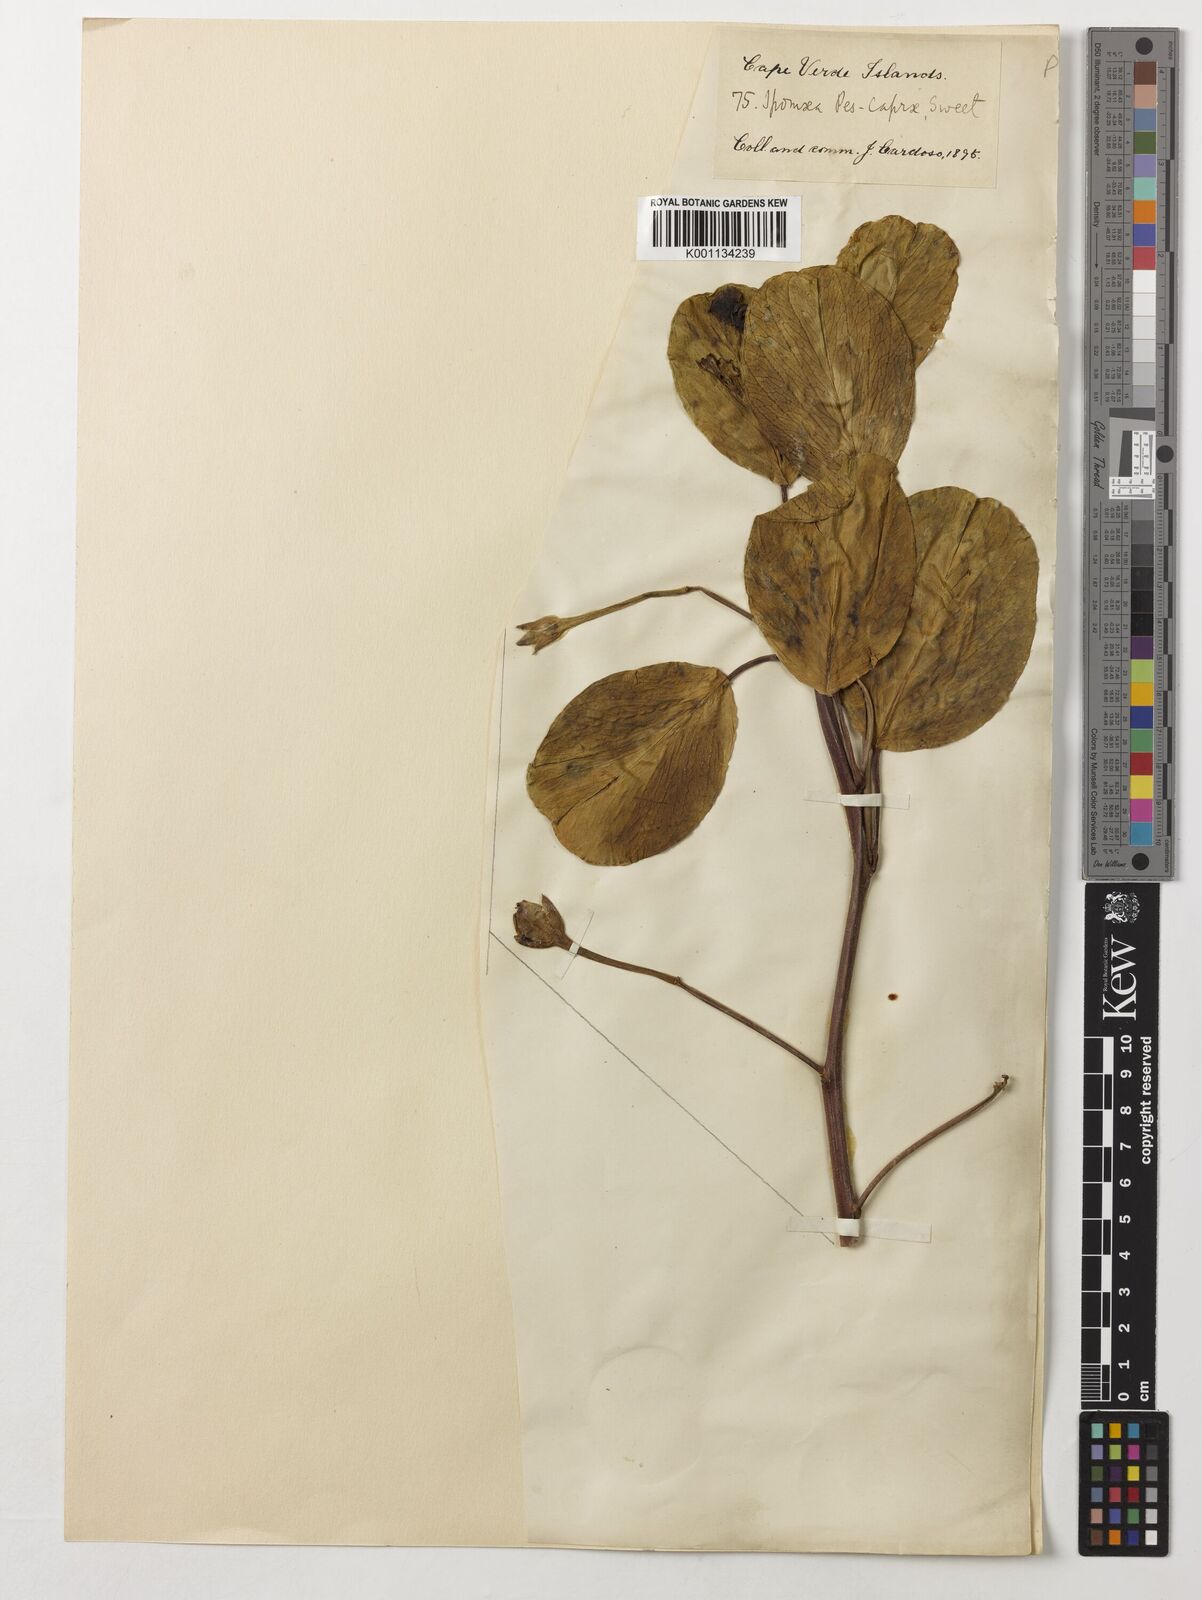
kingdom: Plantae
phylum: Tracheophyta
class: Magnoliopsida
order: Solanales
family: Convolvulaceae
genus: Ipomoea
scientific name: Ipomoea pes-caprae
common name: Beach morning glory
